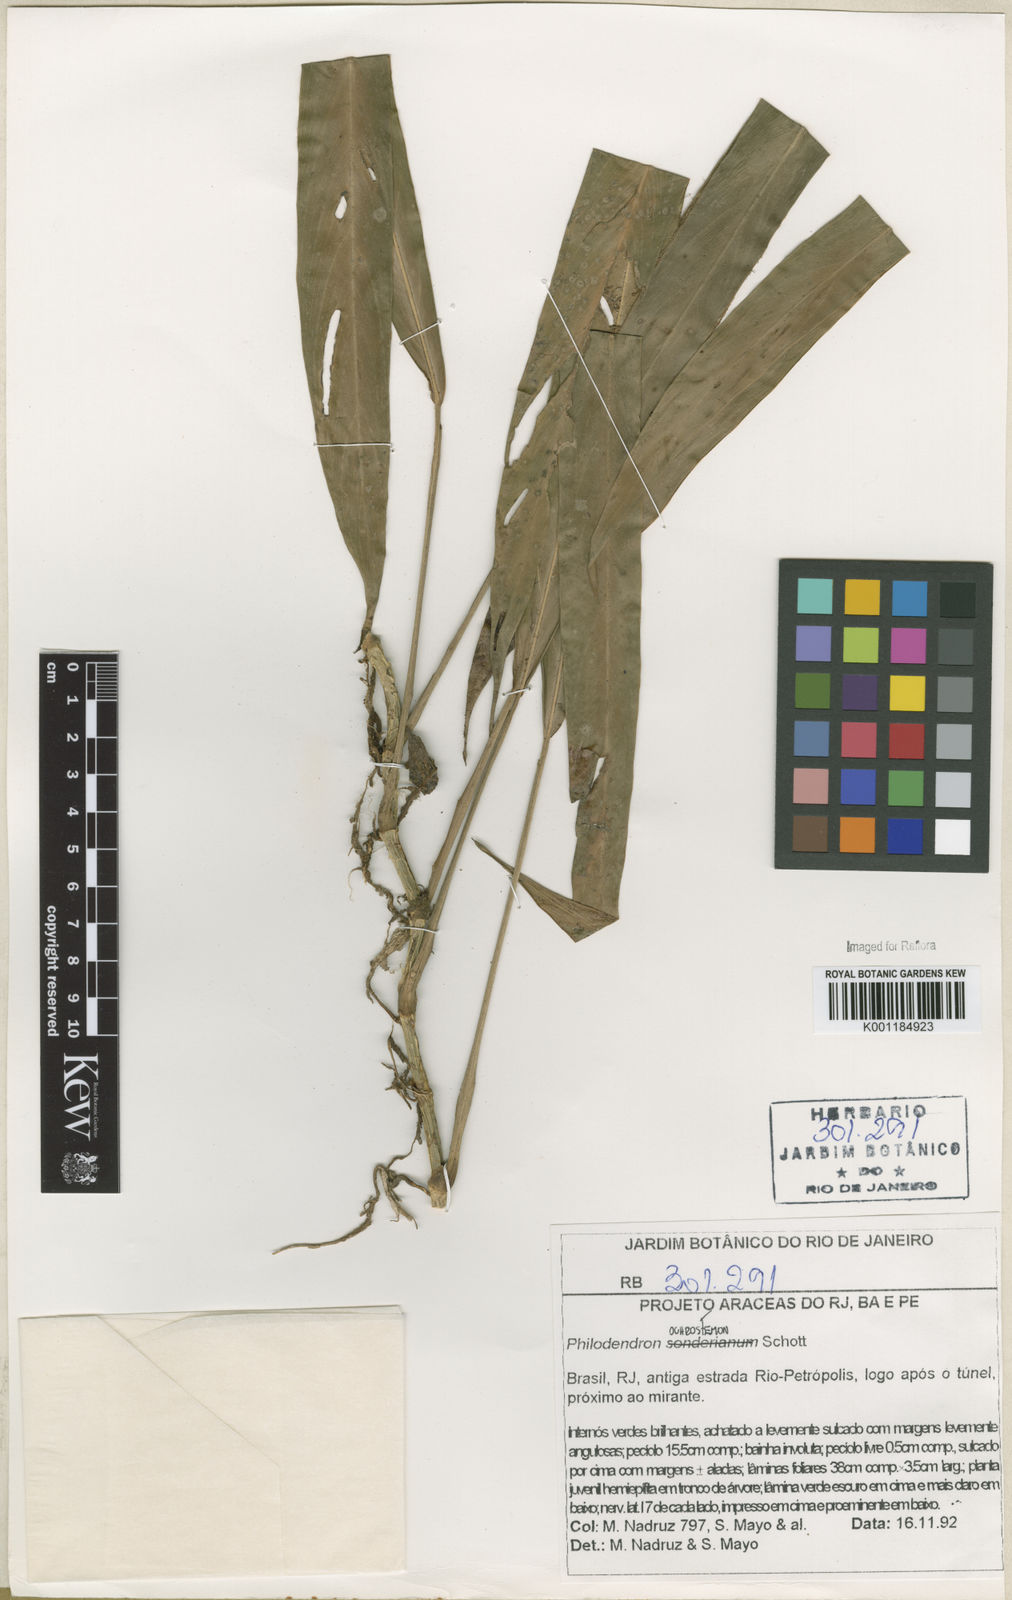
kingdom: Plantae
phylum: Tracheophyta
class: Liliopsida
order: Alismatales
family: Araceae
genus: Philodendron
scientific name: Philodendron ochrostemon
